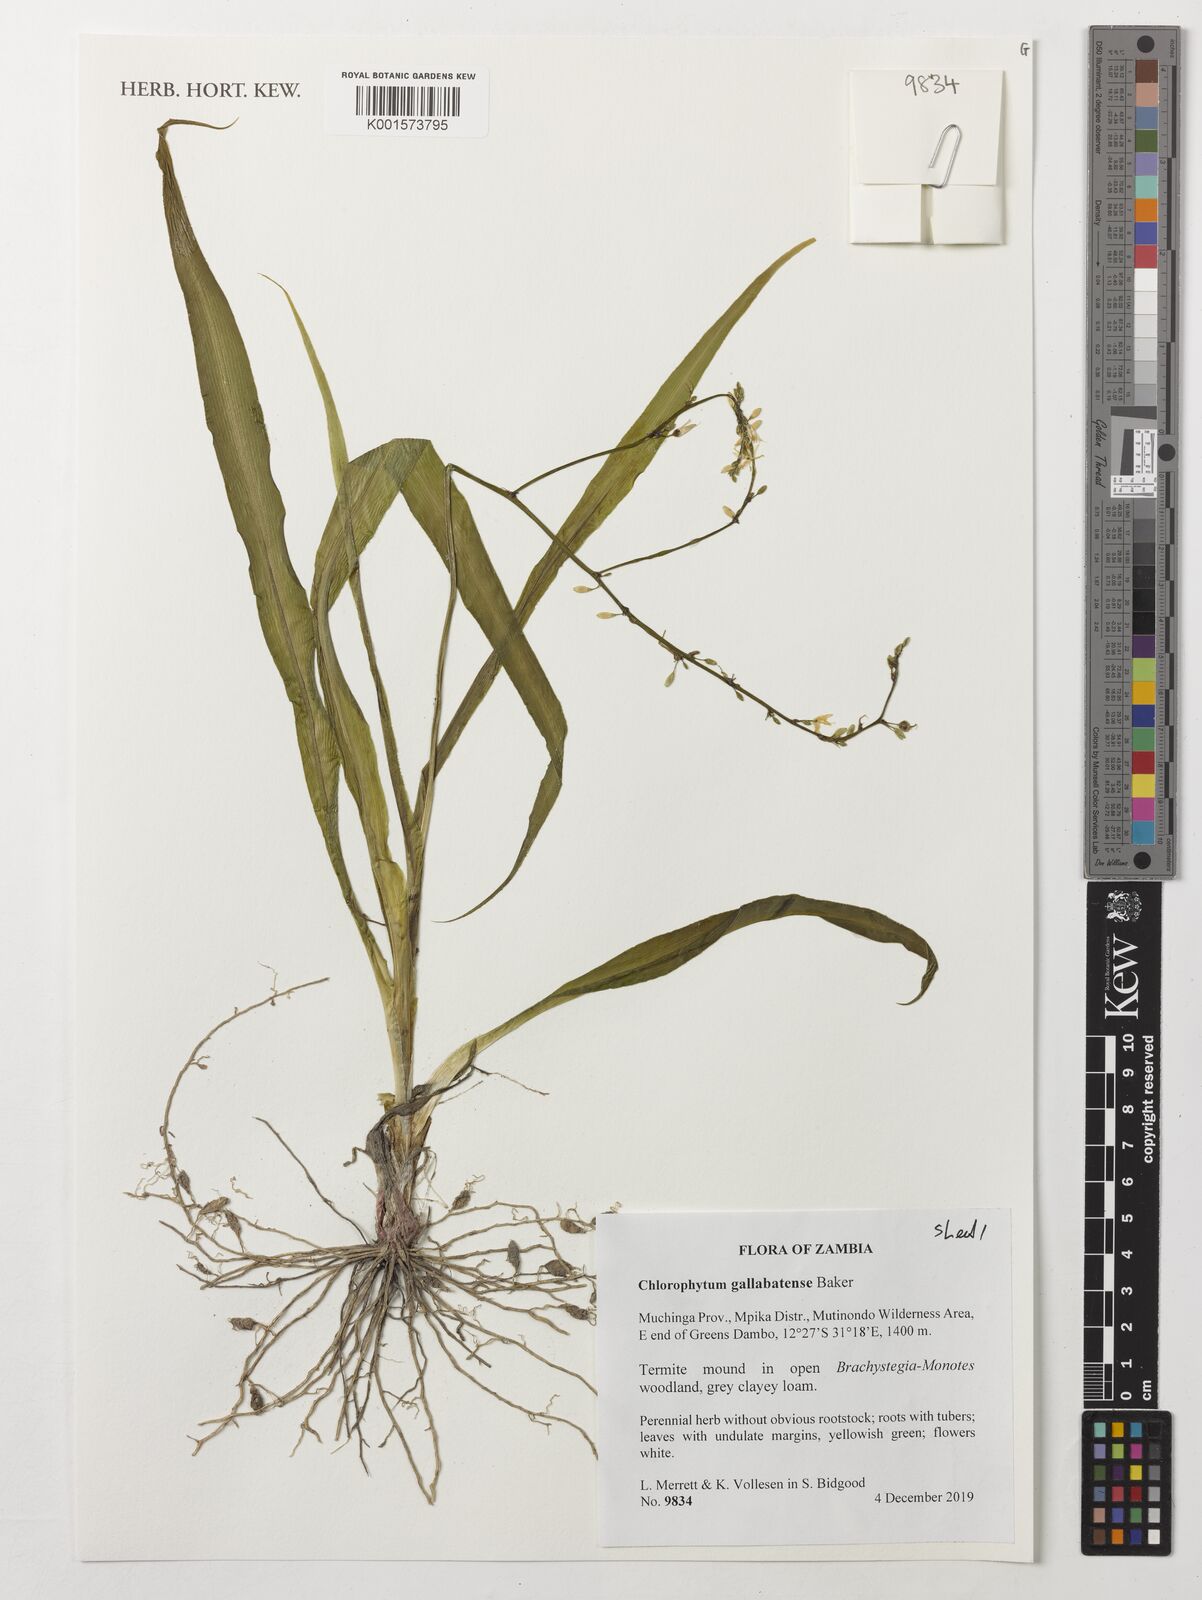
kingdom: Plantae
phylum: Tracheophyta
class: Liliopsida
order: Asparagales
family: Asparagaceae
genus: Chlorophytum
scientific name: Chlorophytum gallabatense
